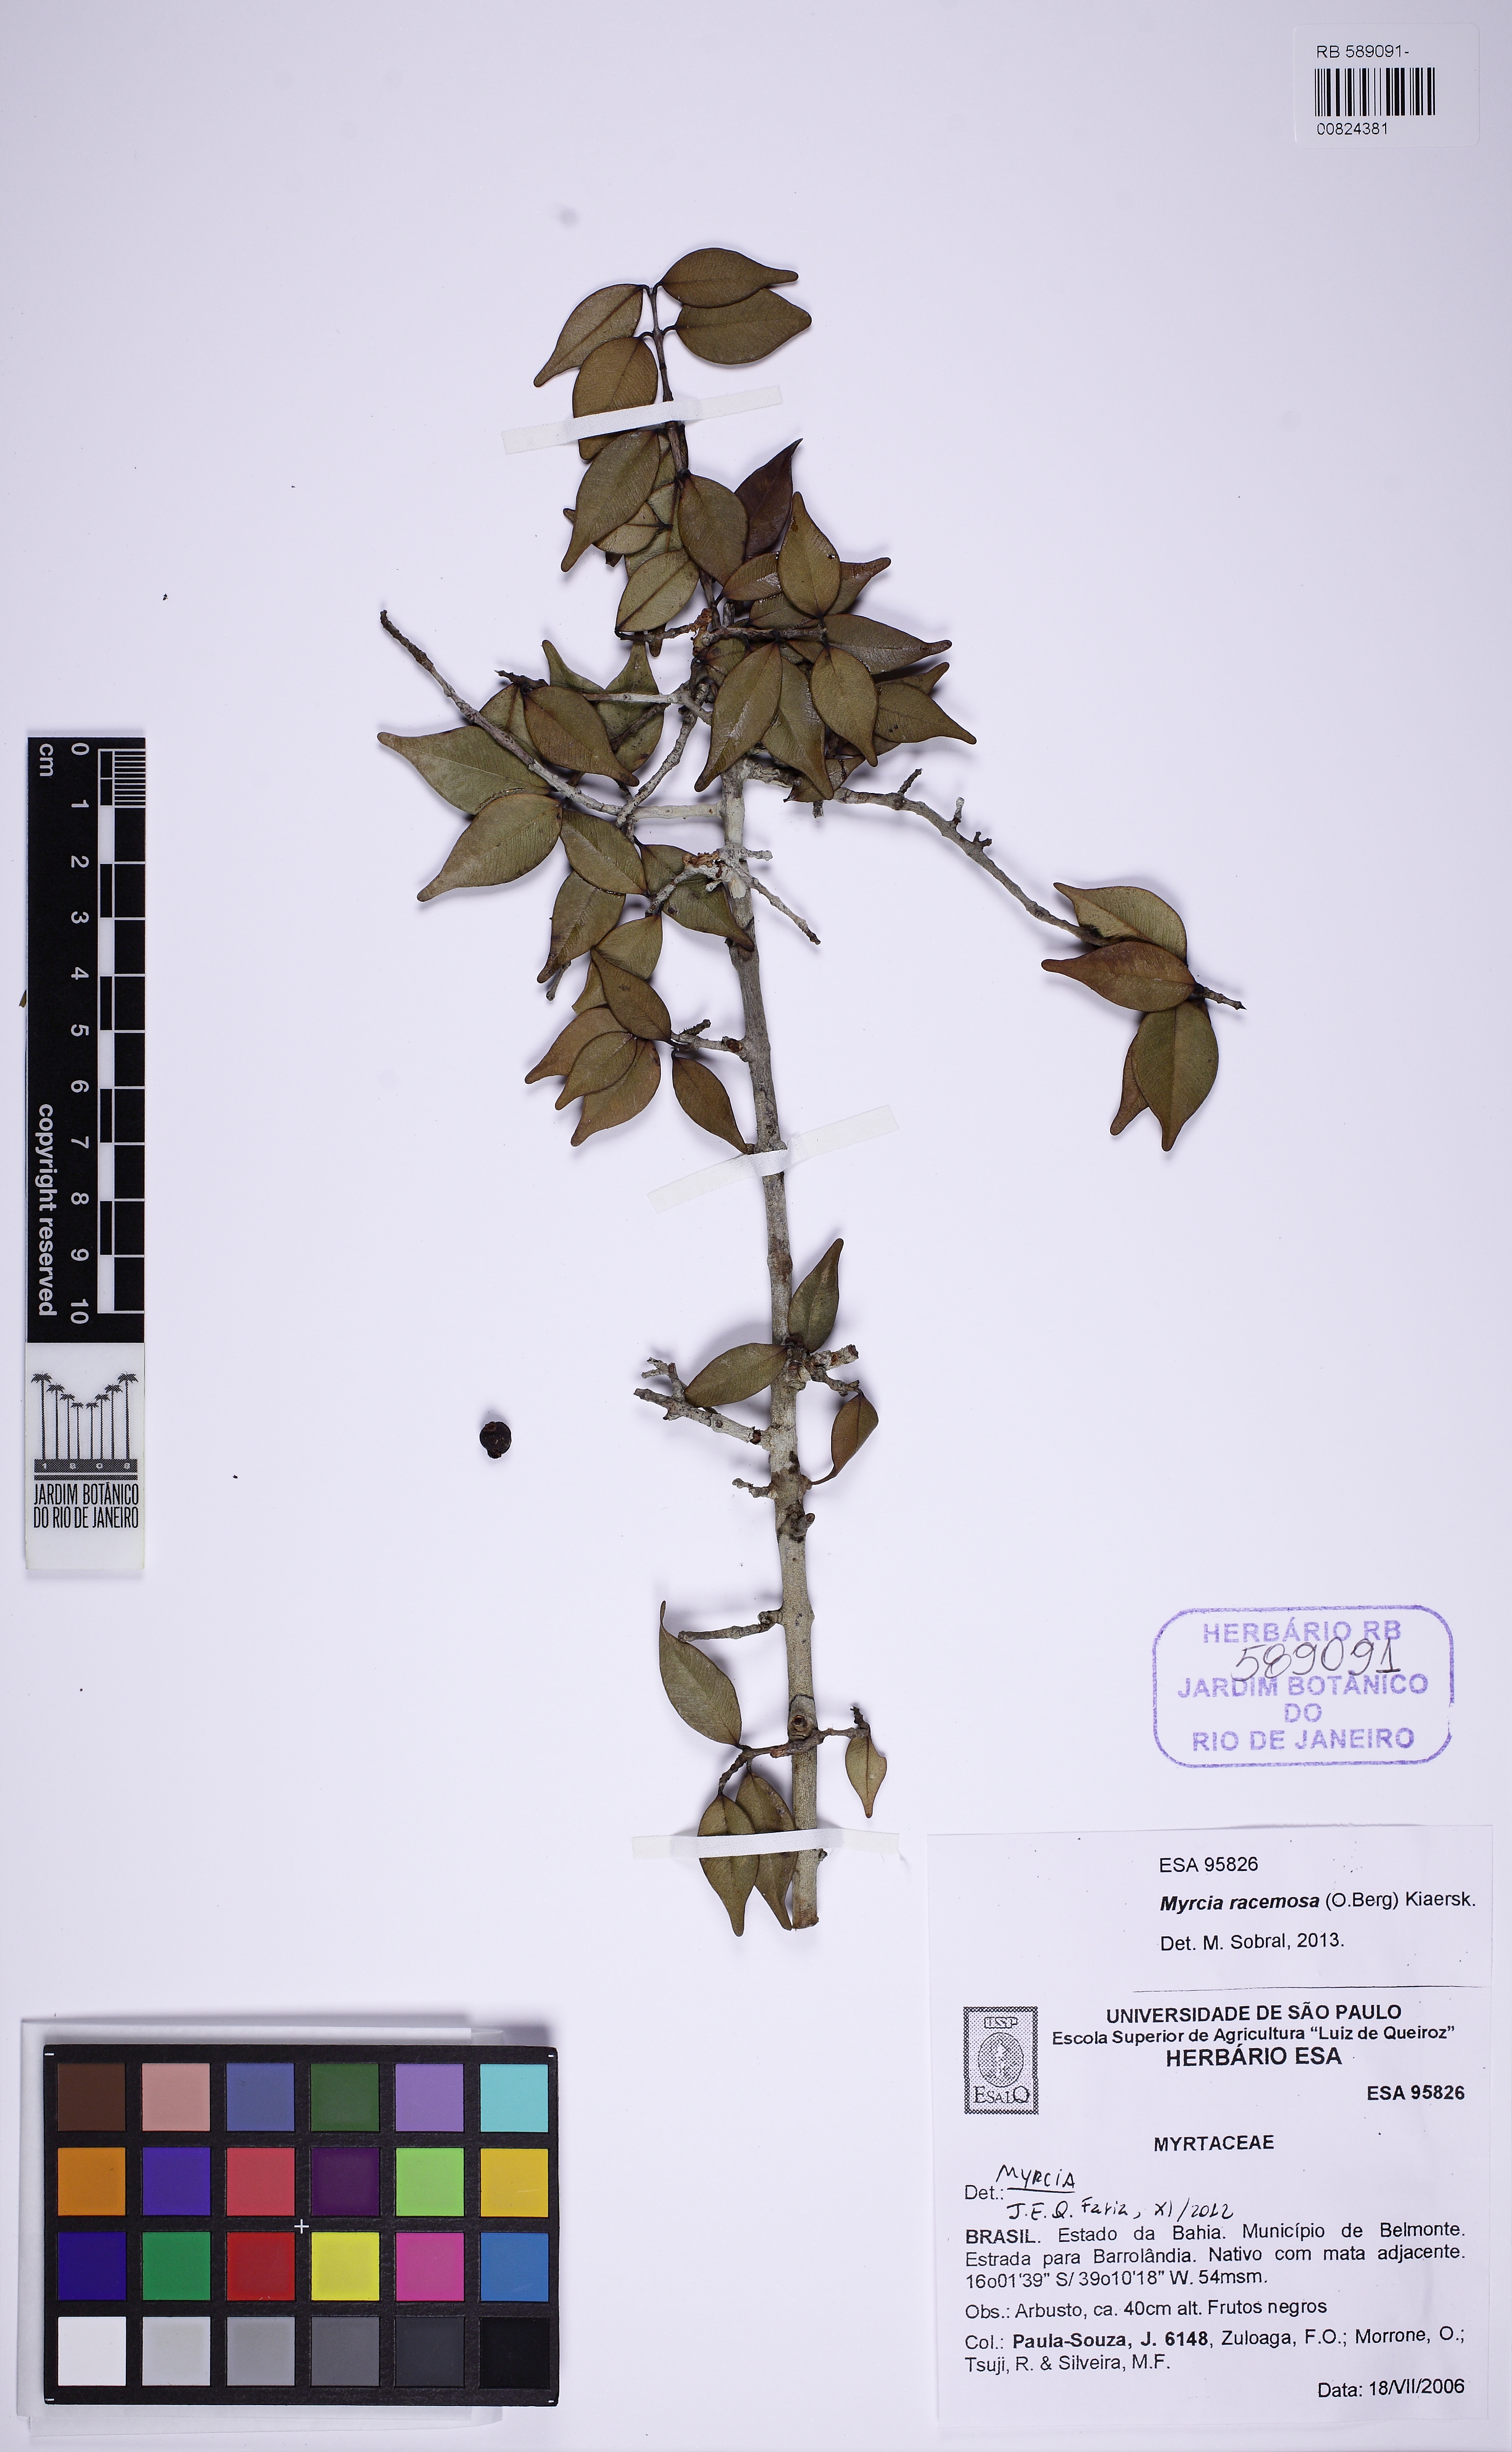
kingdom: Plantae
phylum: Tracheophyta
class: Magnoliopsida
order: Myrtales
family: Myrtaceae
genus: Myrcia
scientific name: Myrcia racemosa
